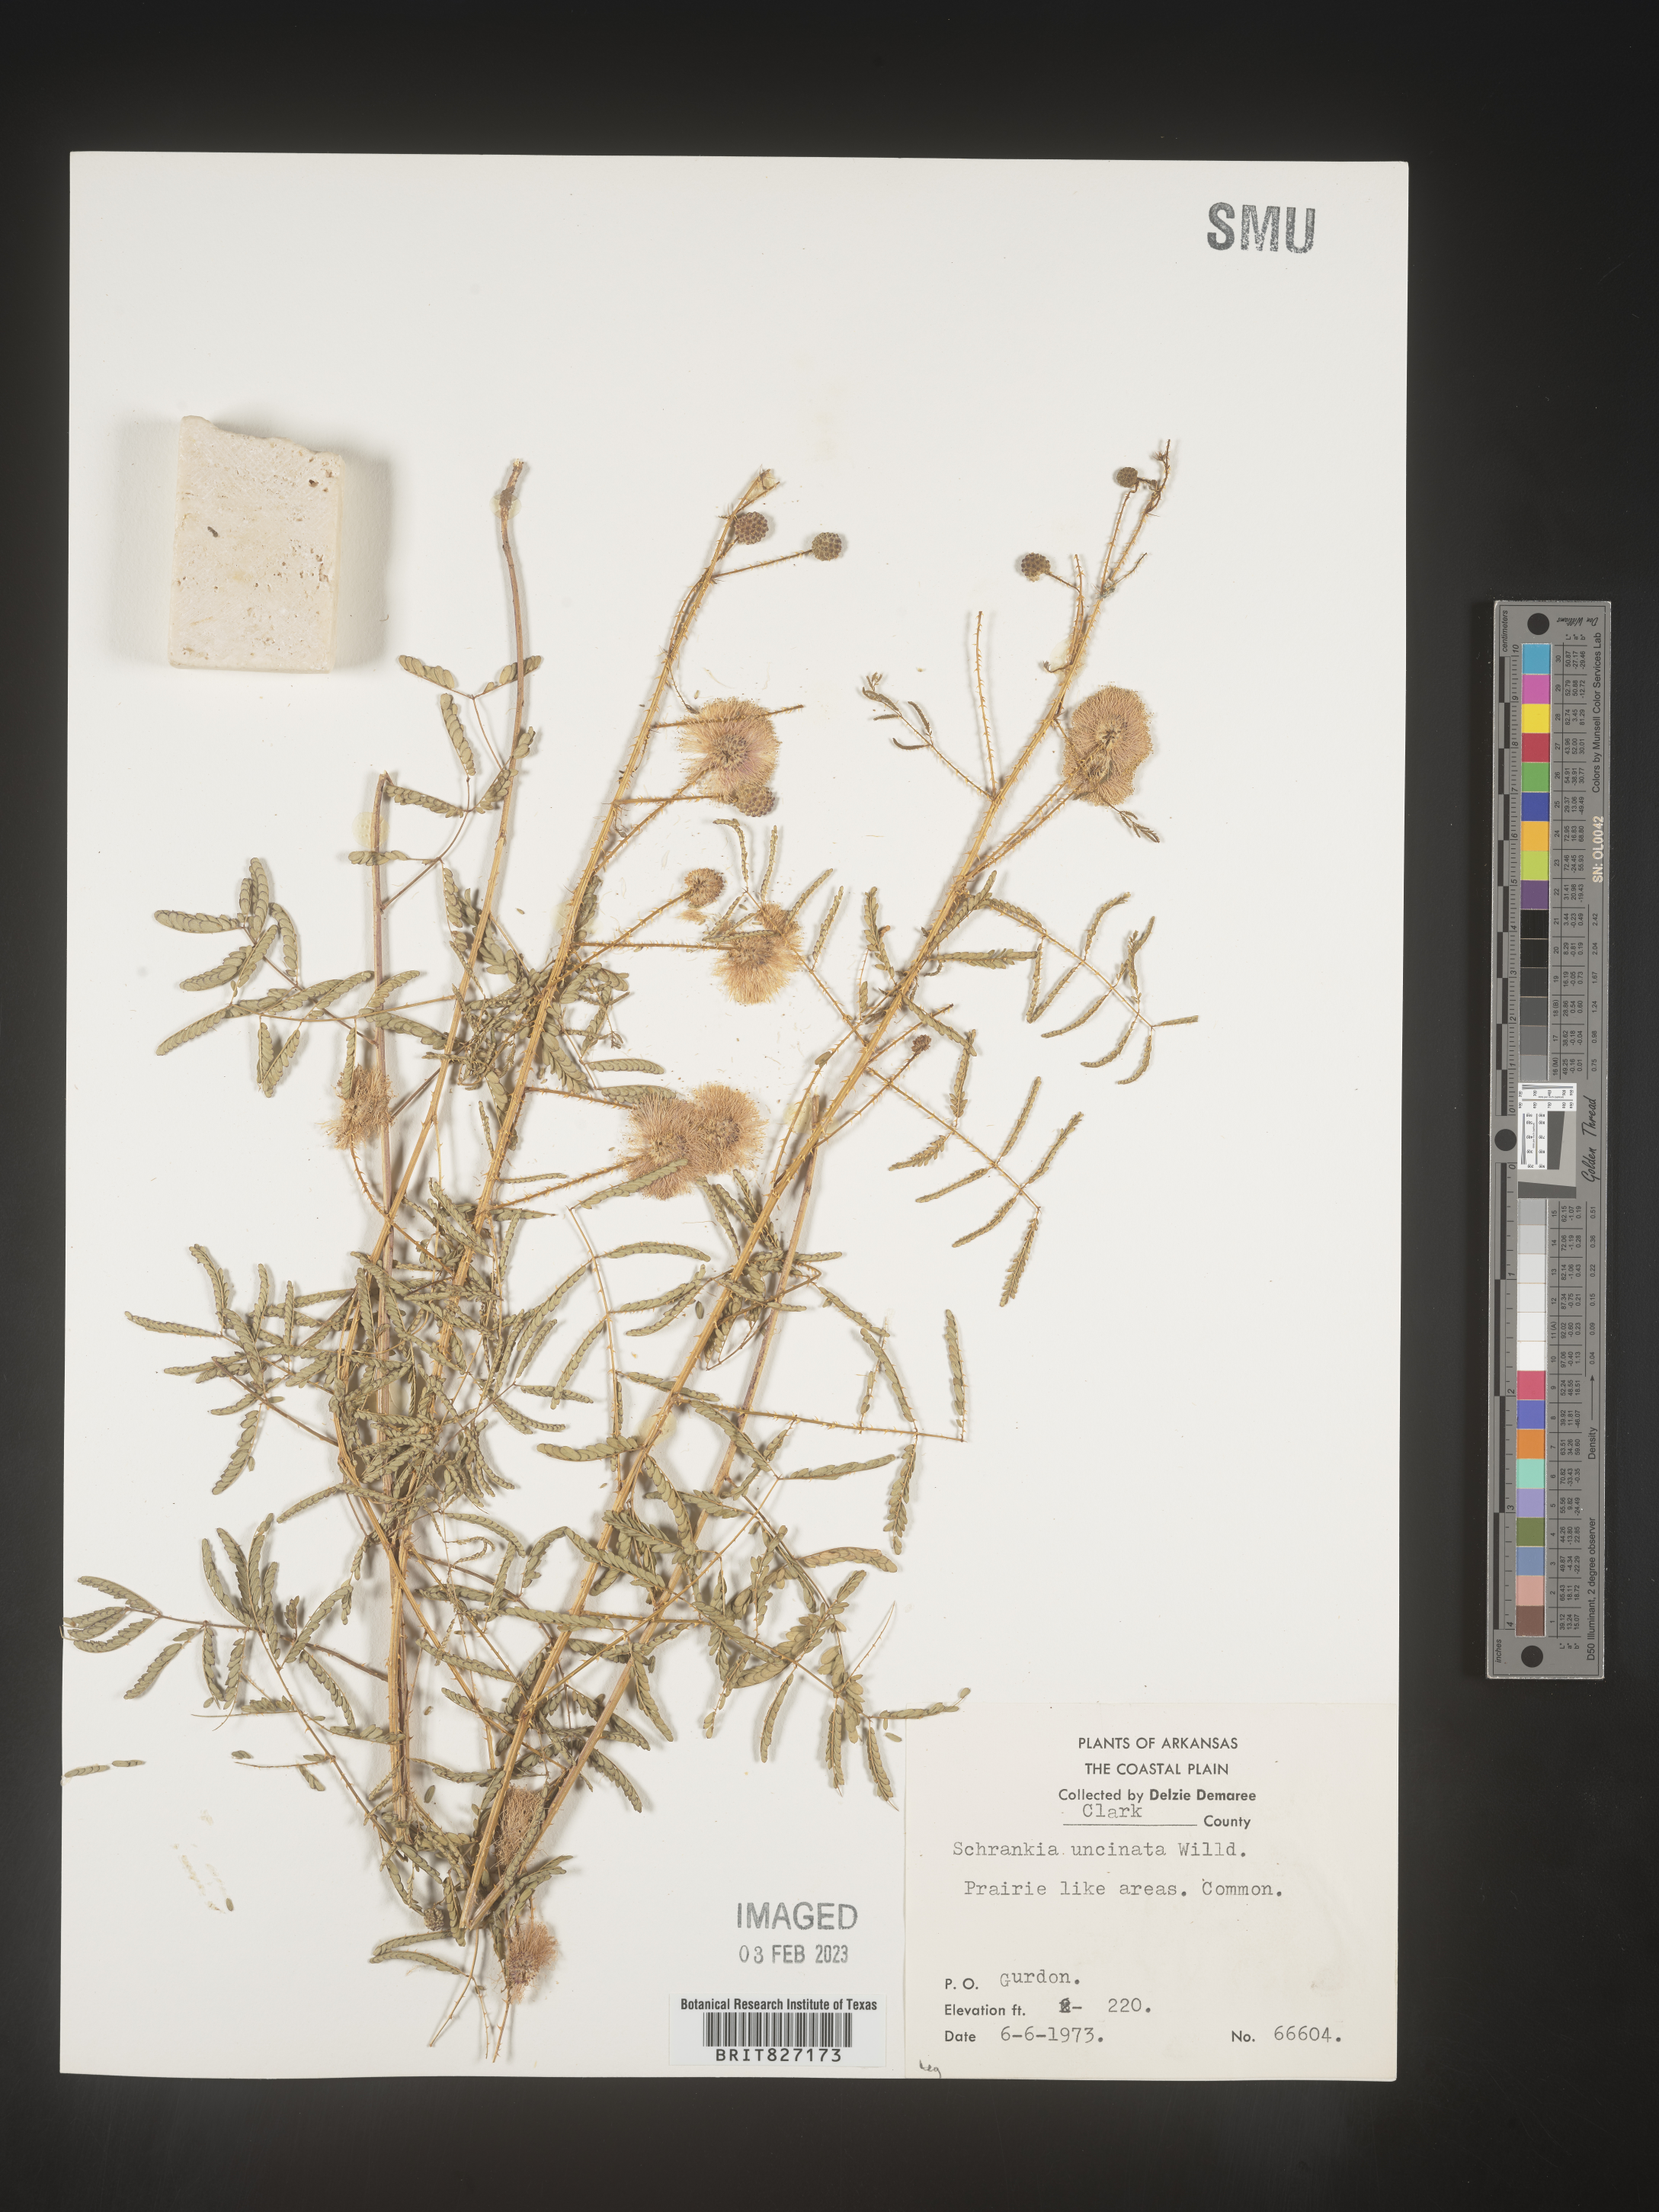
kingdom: Plantae
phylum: Tracheophyta
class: Magnoliopsida
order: Fabales
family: Fabaceae
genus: Mimosa
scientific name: Mimosa quadrivalvis
